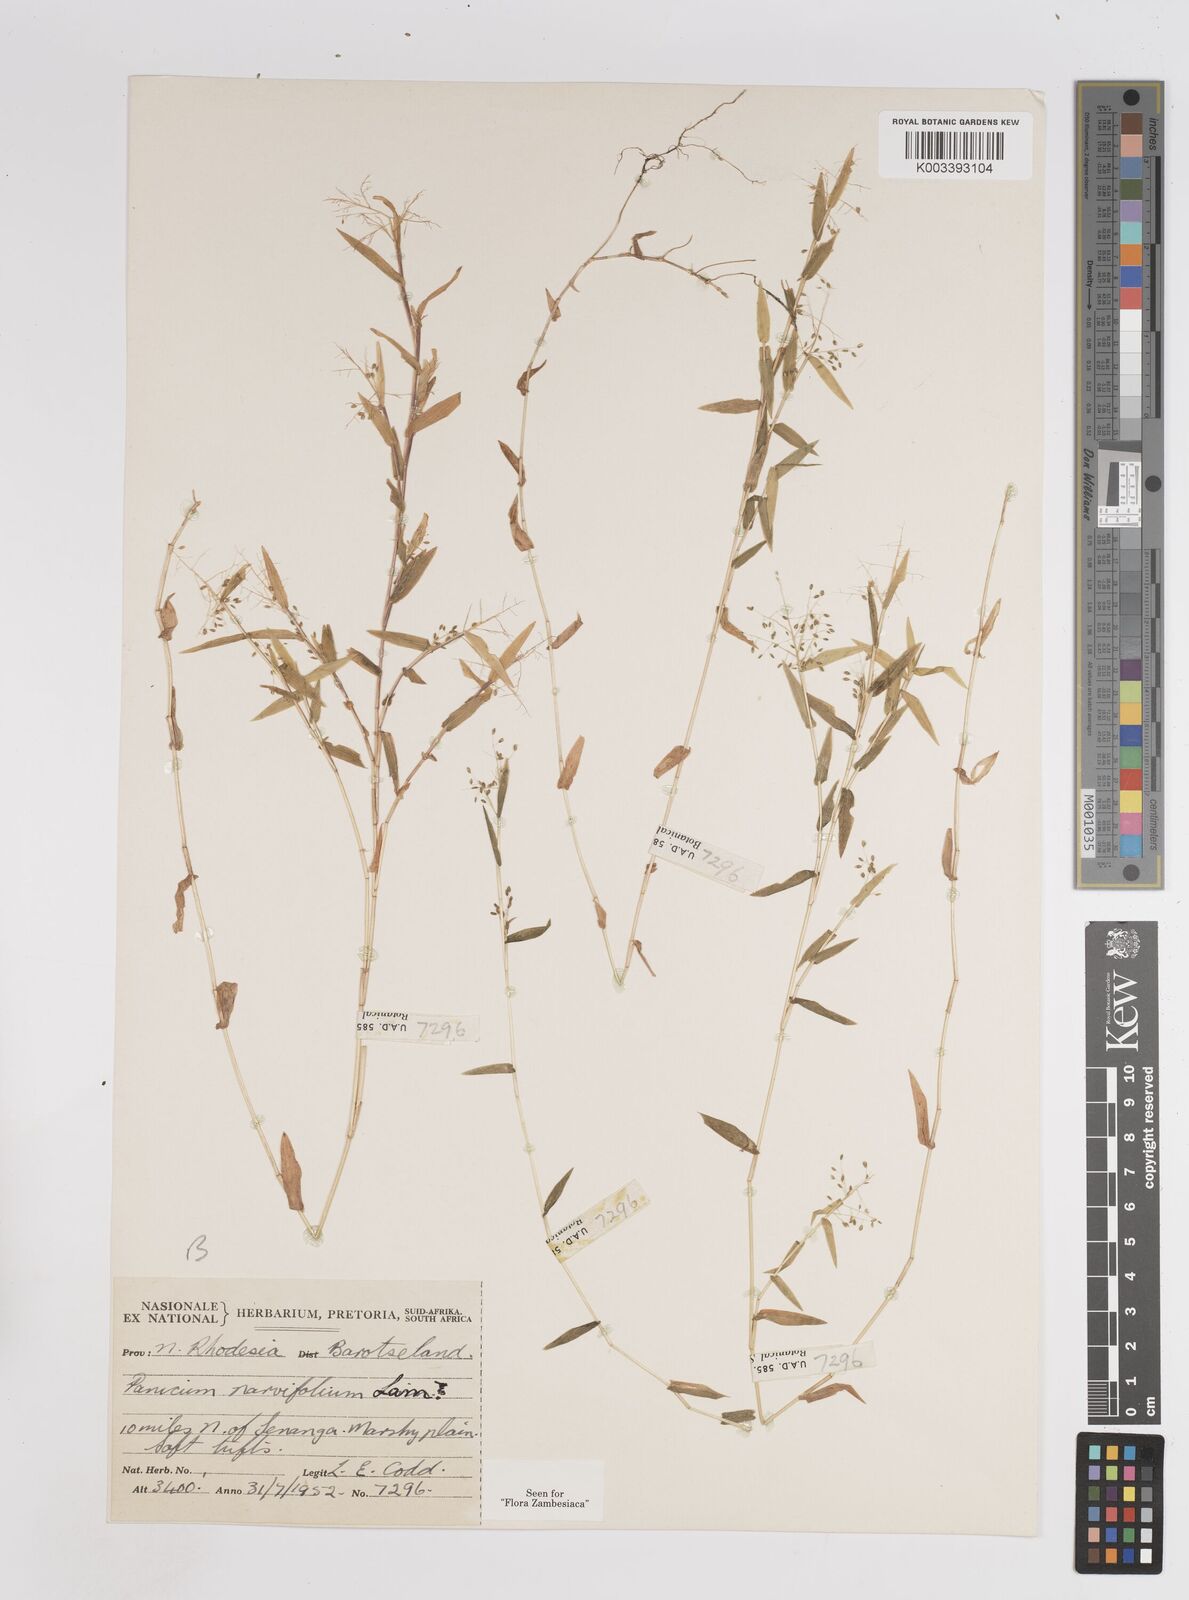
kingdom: Plantae
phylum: Tracheophyta
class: Liliopsida
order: Poales
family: Poaceae
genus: Trichanthecium
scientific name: Trichanthecium parvifolium
